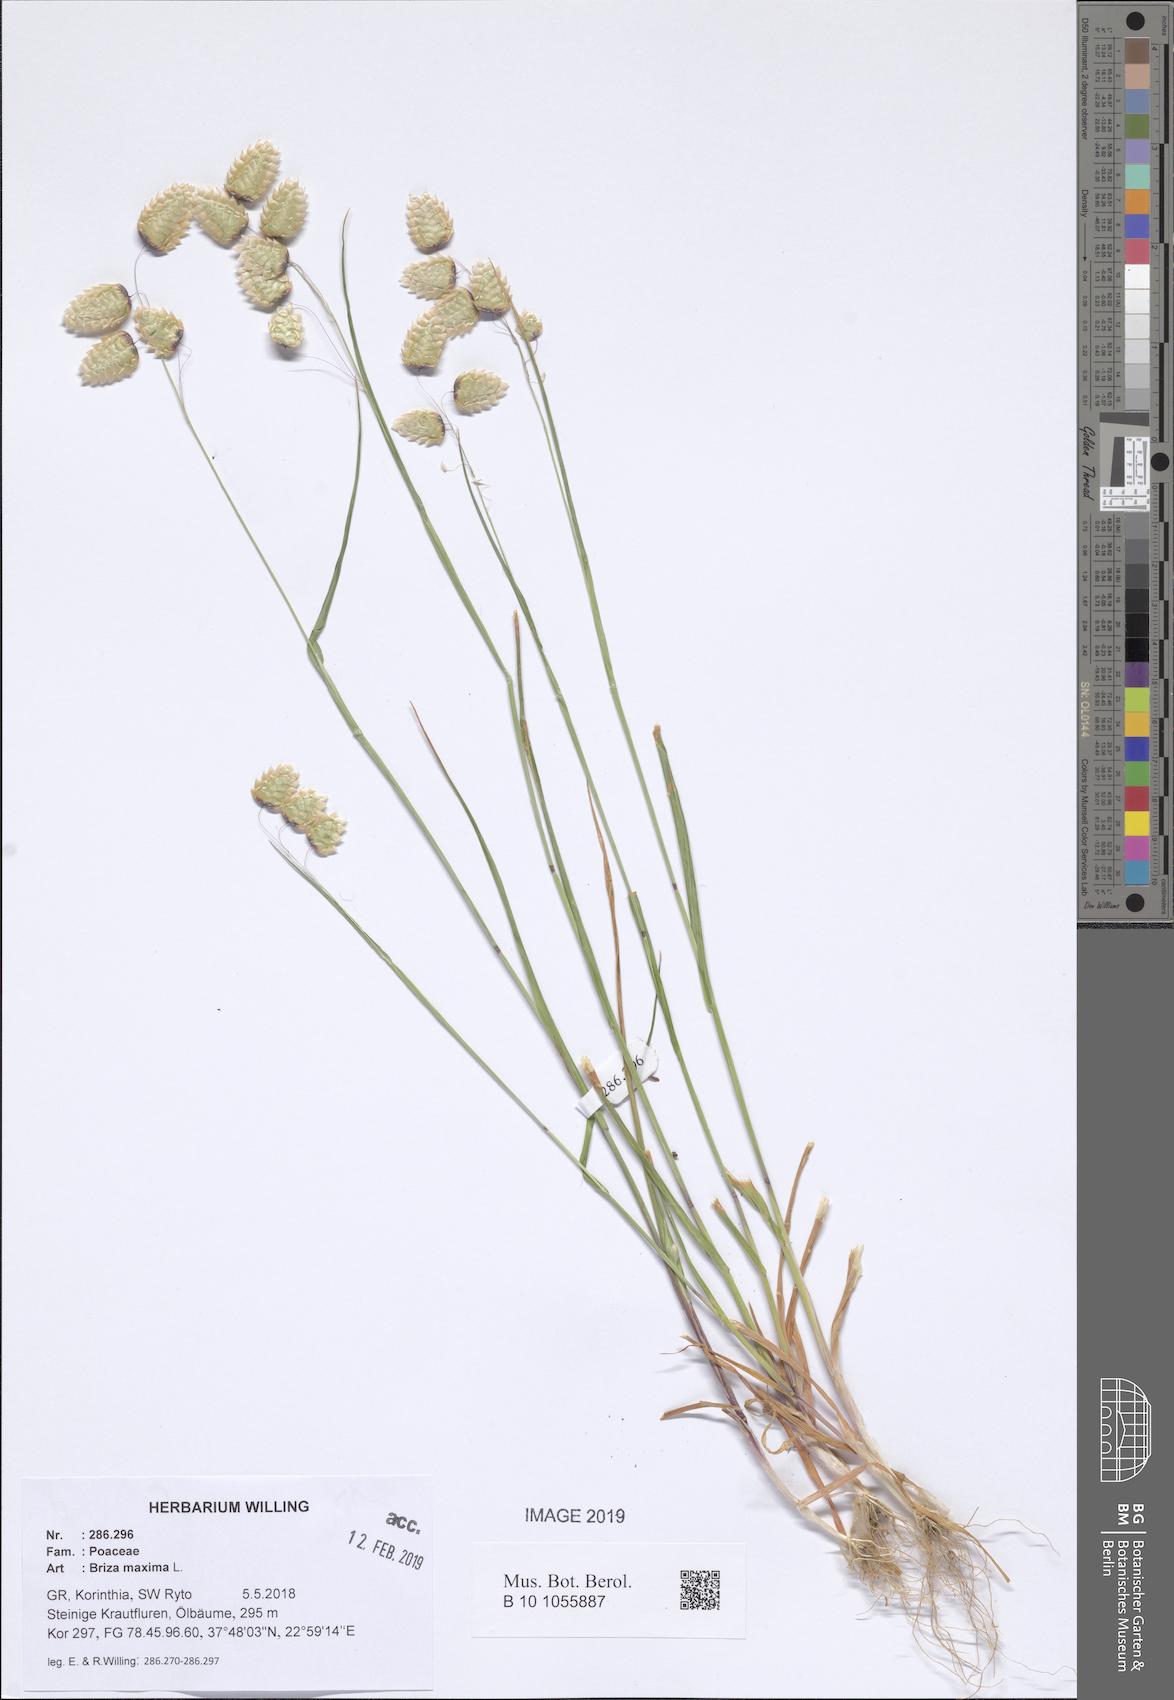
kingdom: Plantae
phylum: Tracheophyta
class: Liliopsida
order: Poales
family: Poaceae
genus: Briza
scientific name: Briza maxima
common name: Big quakinggrass
